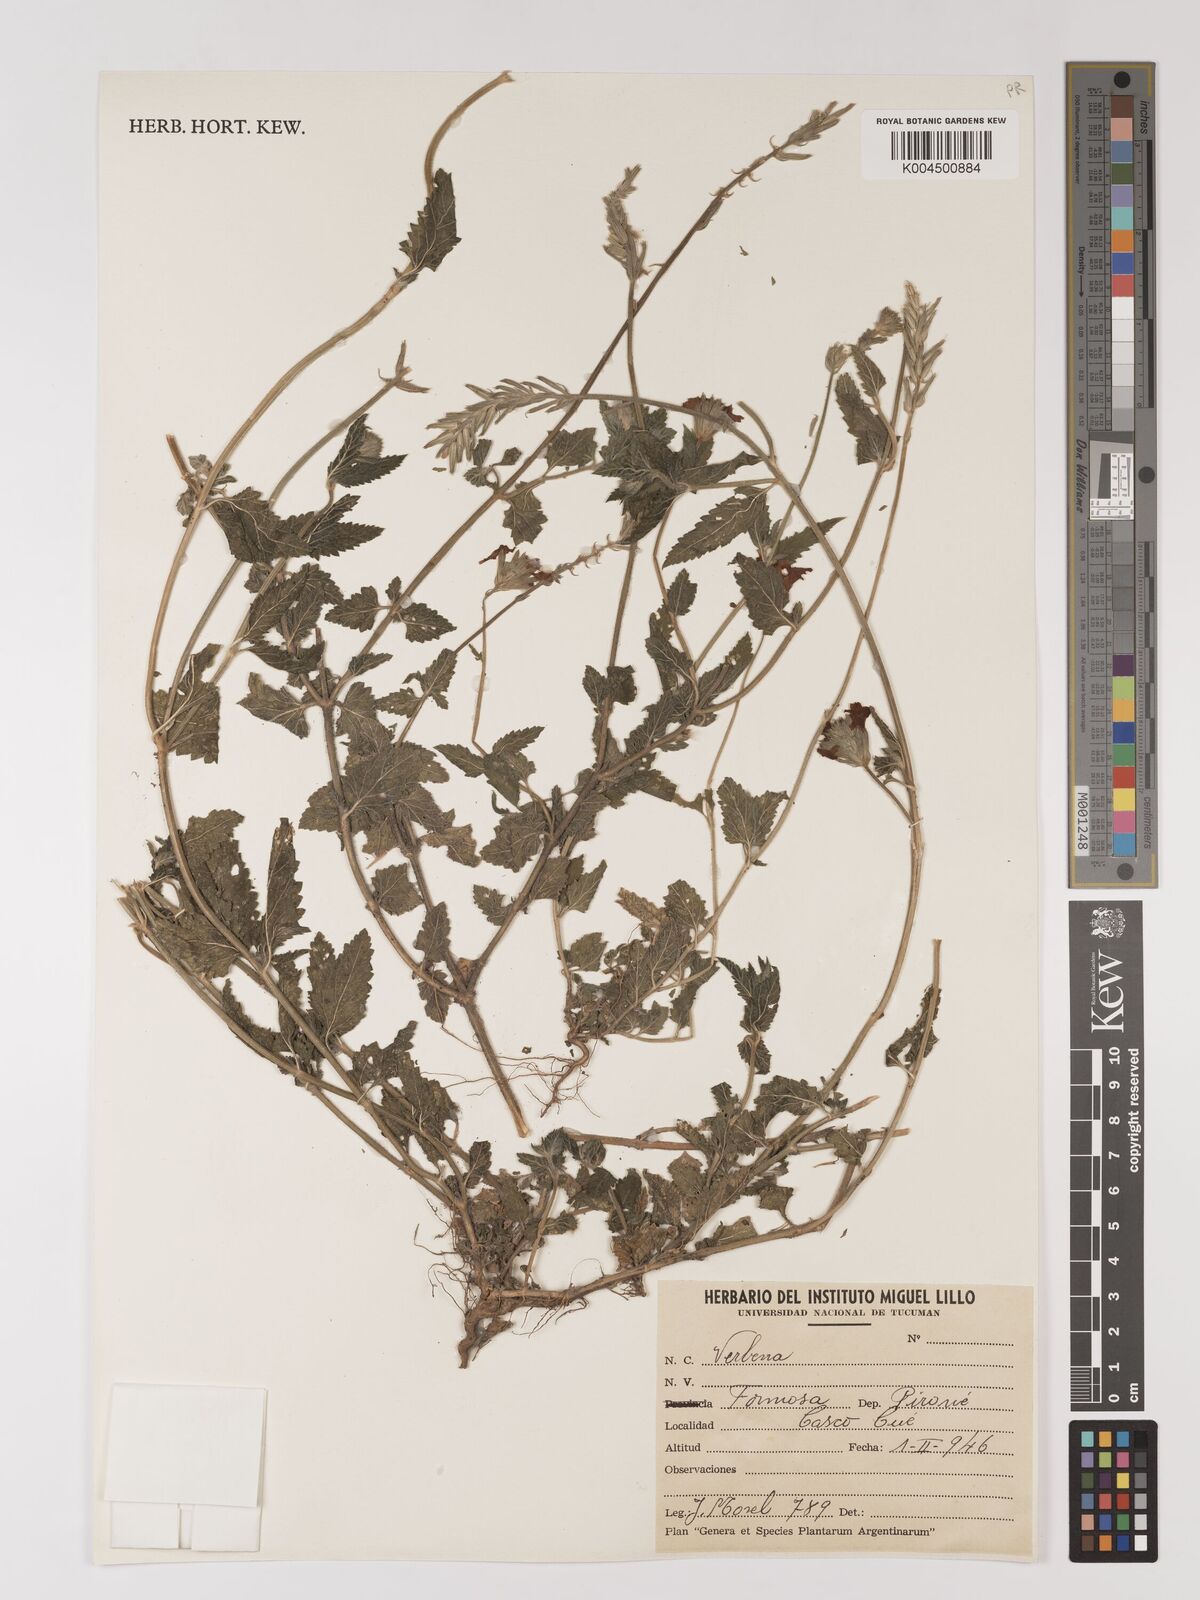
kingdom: Plantae
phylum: Tracheophyta
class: Magnoliopsida
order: Lamiales
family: Verbenaceae
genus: Verbena
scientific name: Verbena
